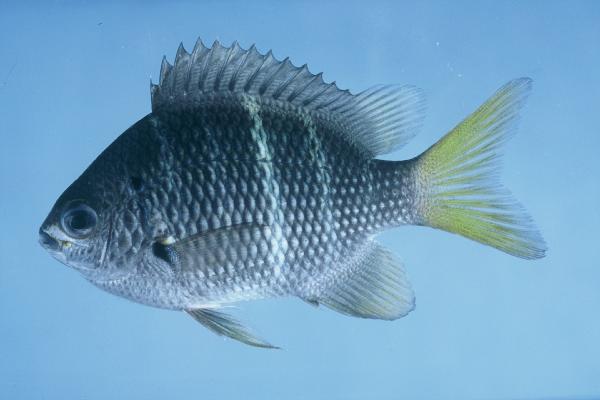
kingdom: Animalia
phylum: Chordata
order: Perciformes
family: Pomacentridae
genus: Abudefduf
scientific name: Abudefduf notatus
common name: Yellow-tail sergeant
